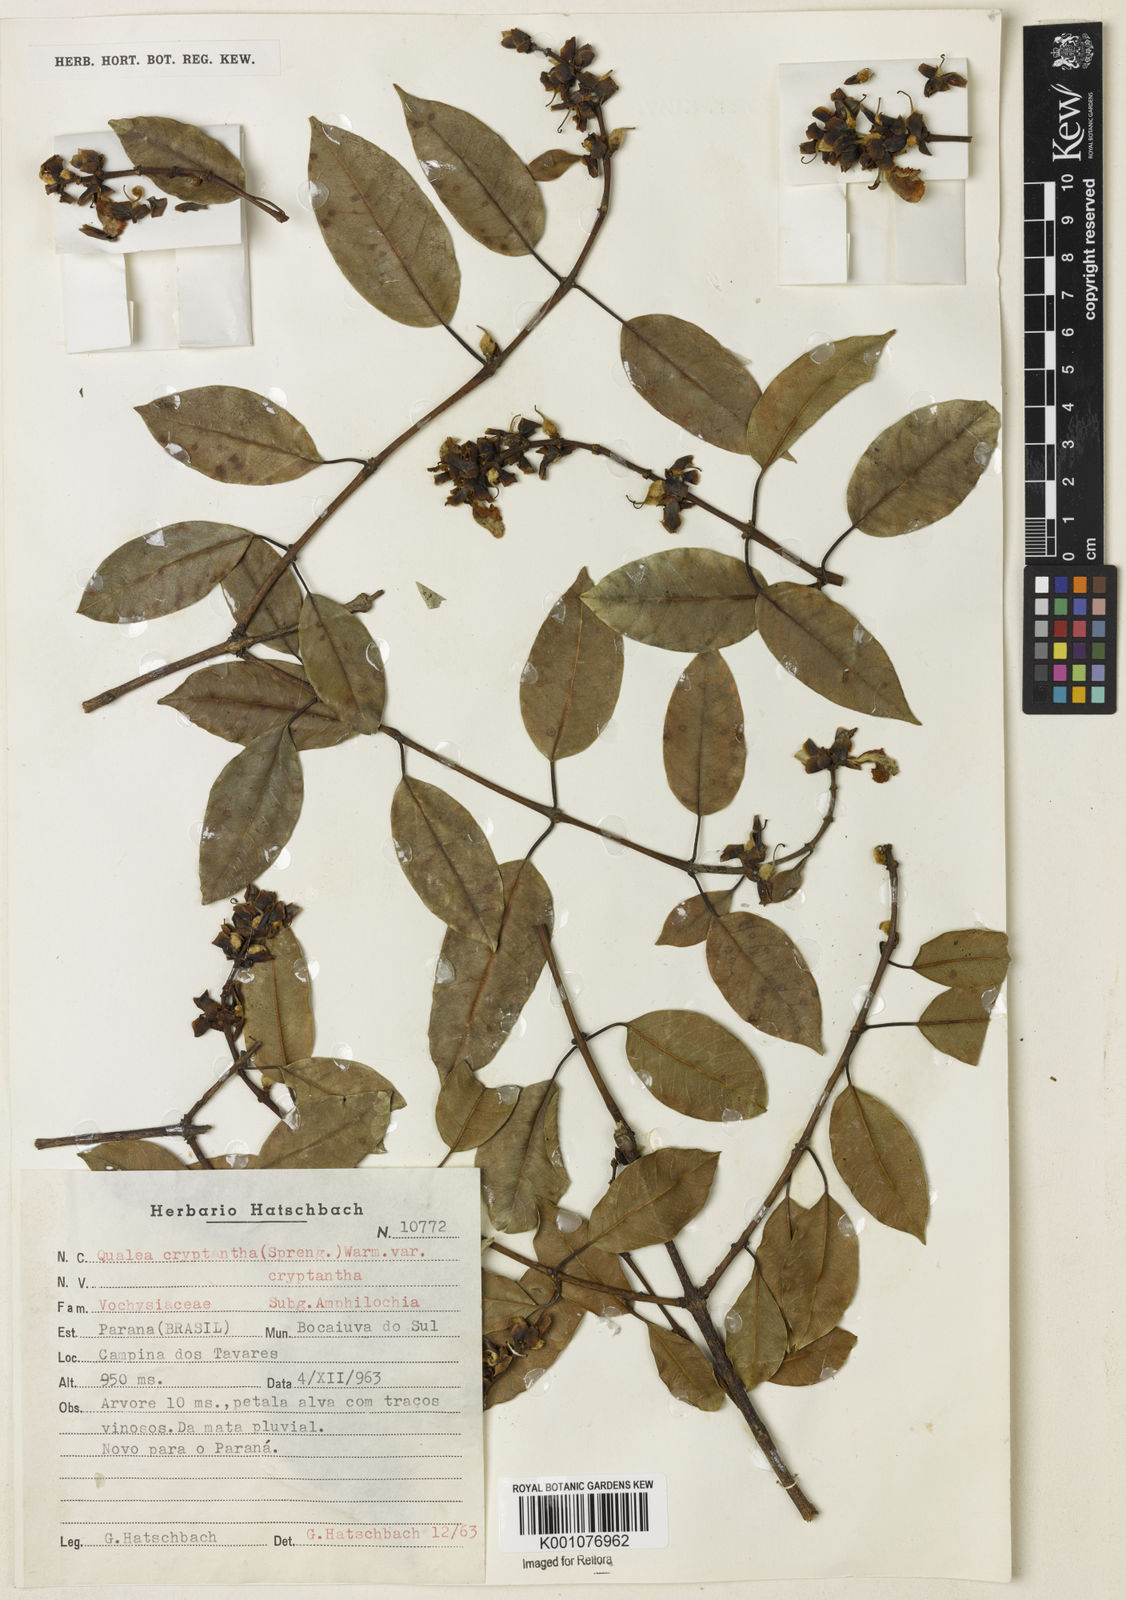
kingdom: Plantae
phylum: Tracheophyta
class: Magnoliopsida
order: Myrtales
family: Vochysiaceae
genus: Qualea
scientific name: Qualea cryptantha
